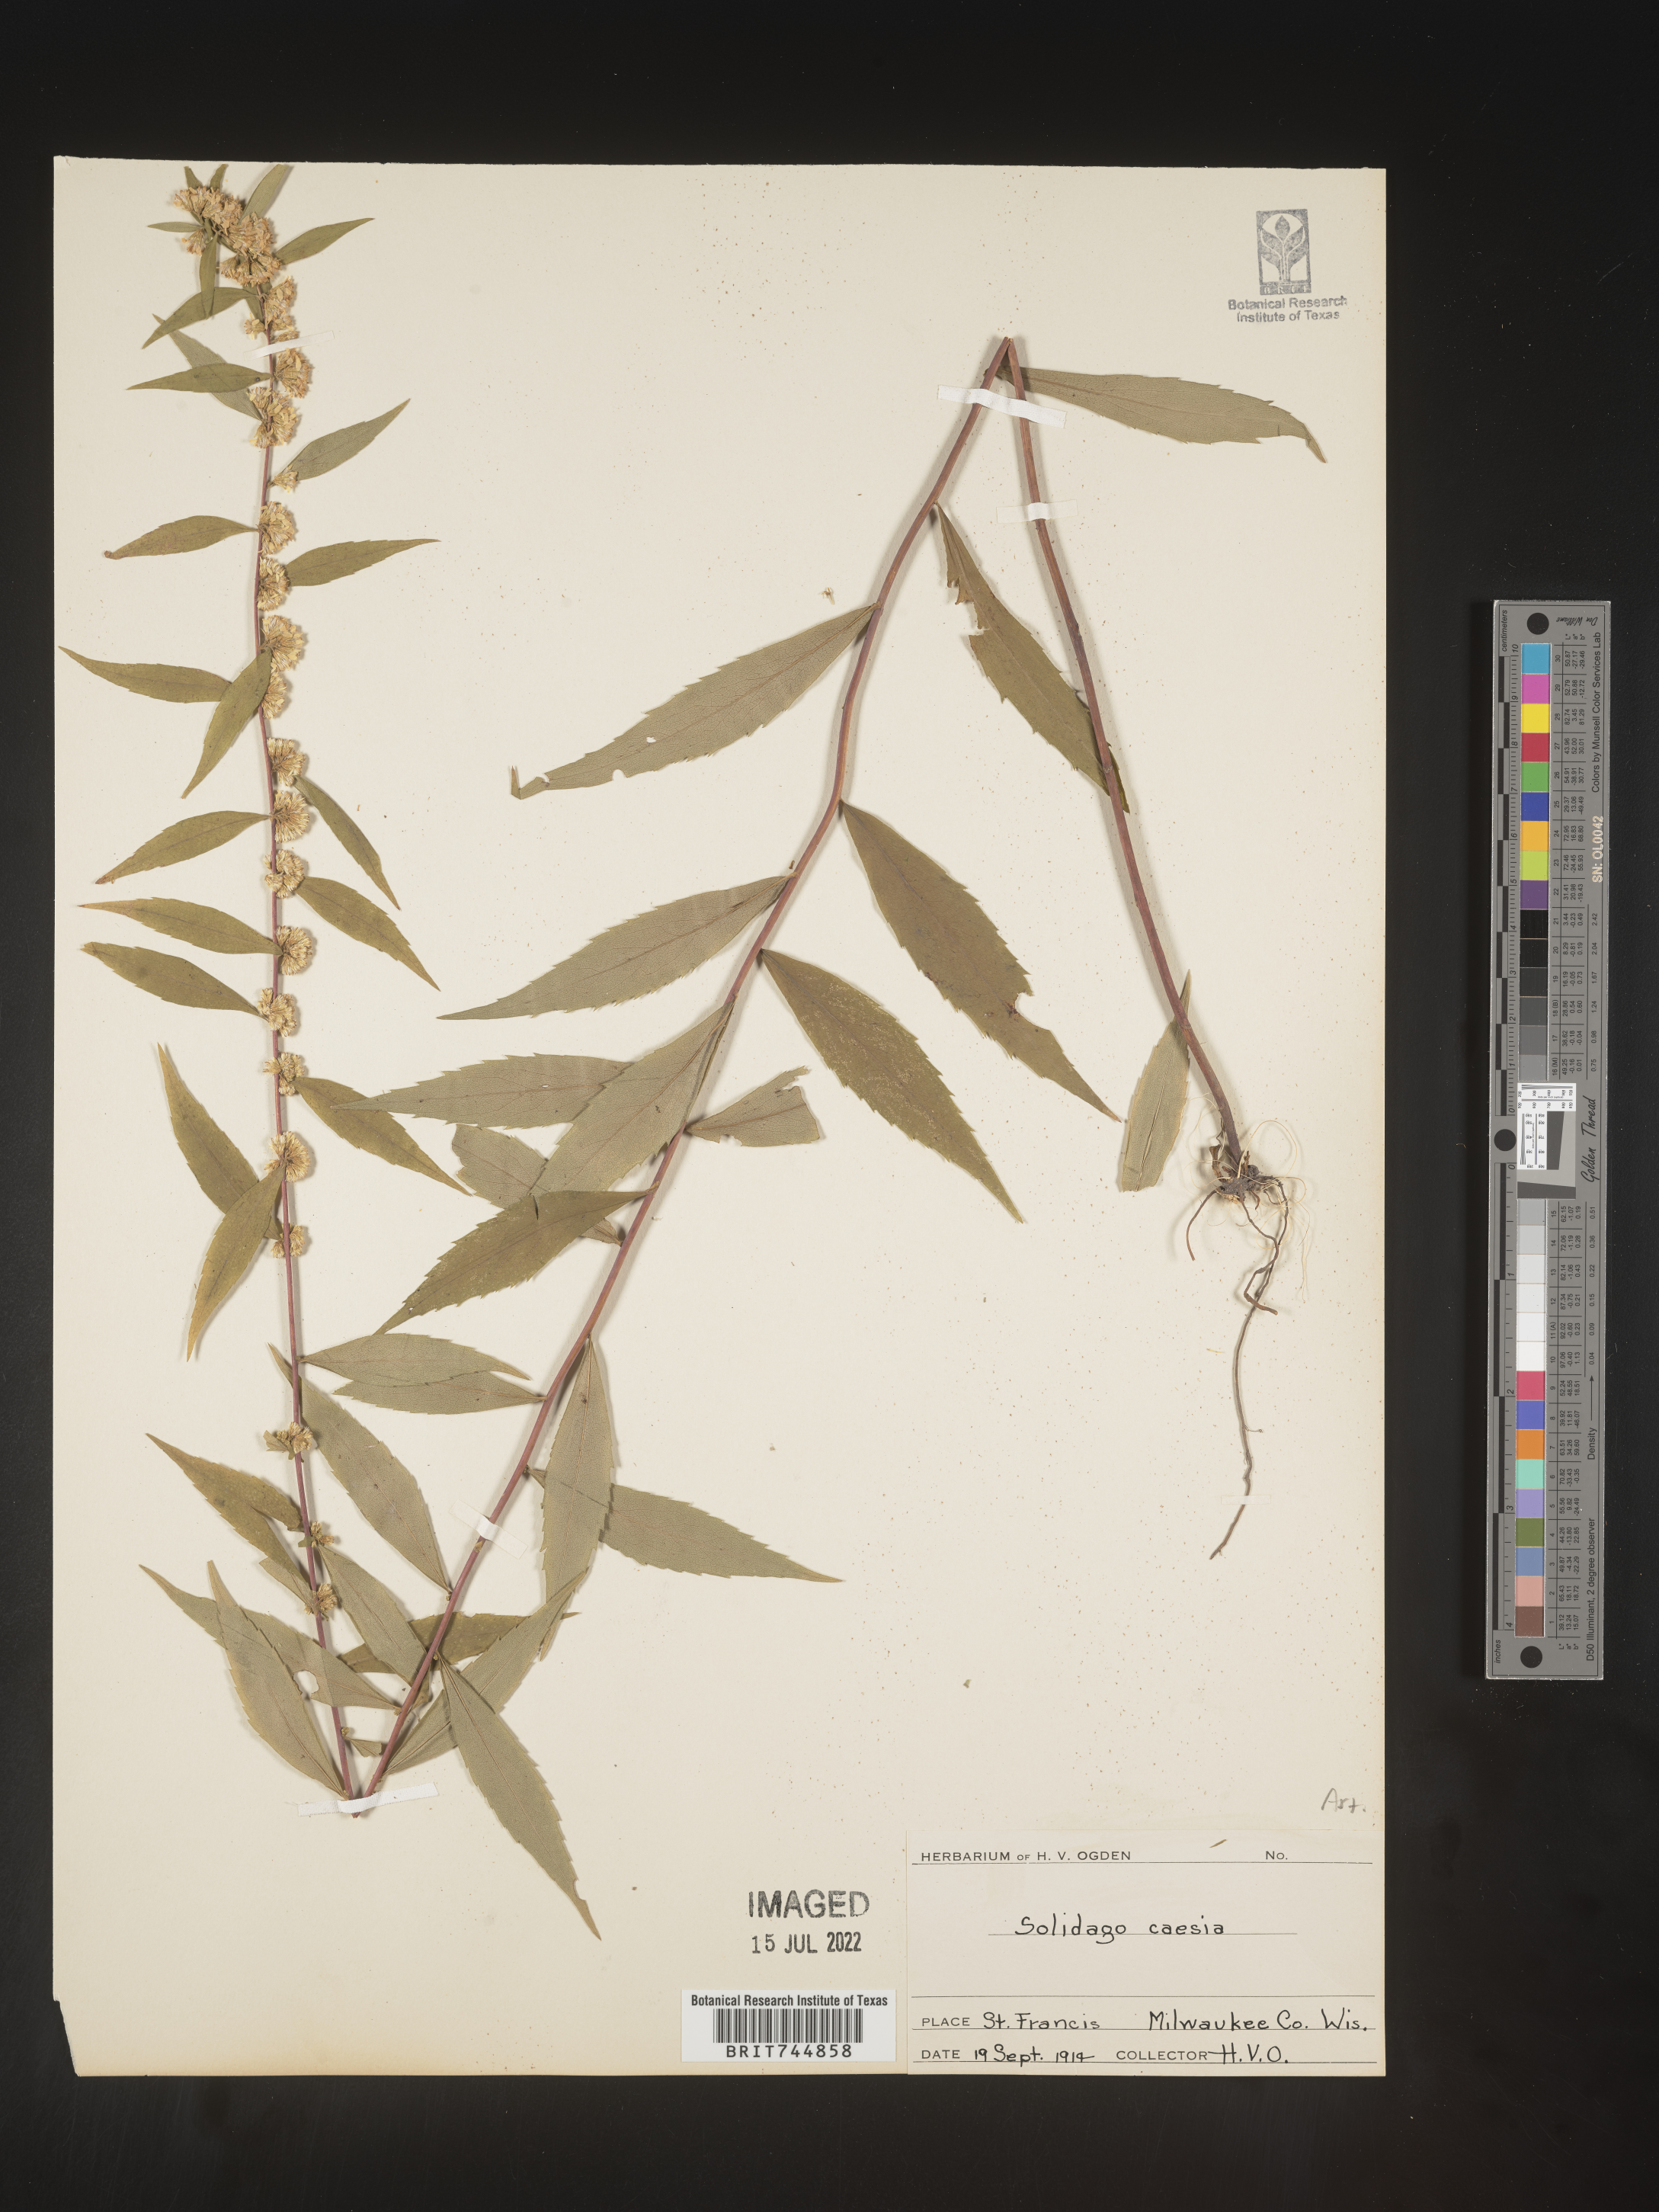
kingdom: Plantae
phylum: Tracheophyta
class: Magnoliopsida
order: Asterales
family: Asteraceae
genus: Solidago
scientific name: Solidago caesia
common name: Woodland goldenrod
